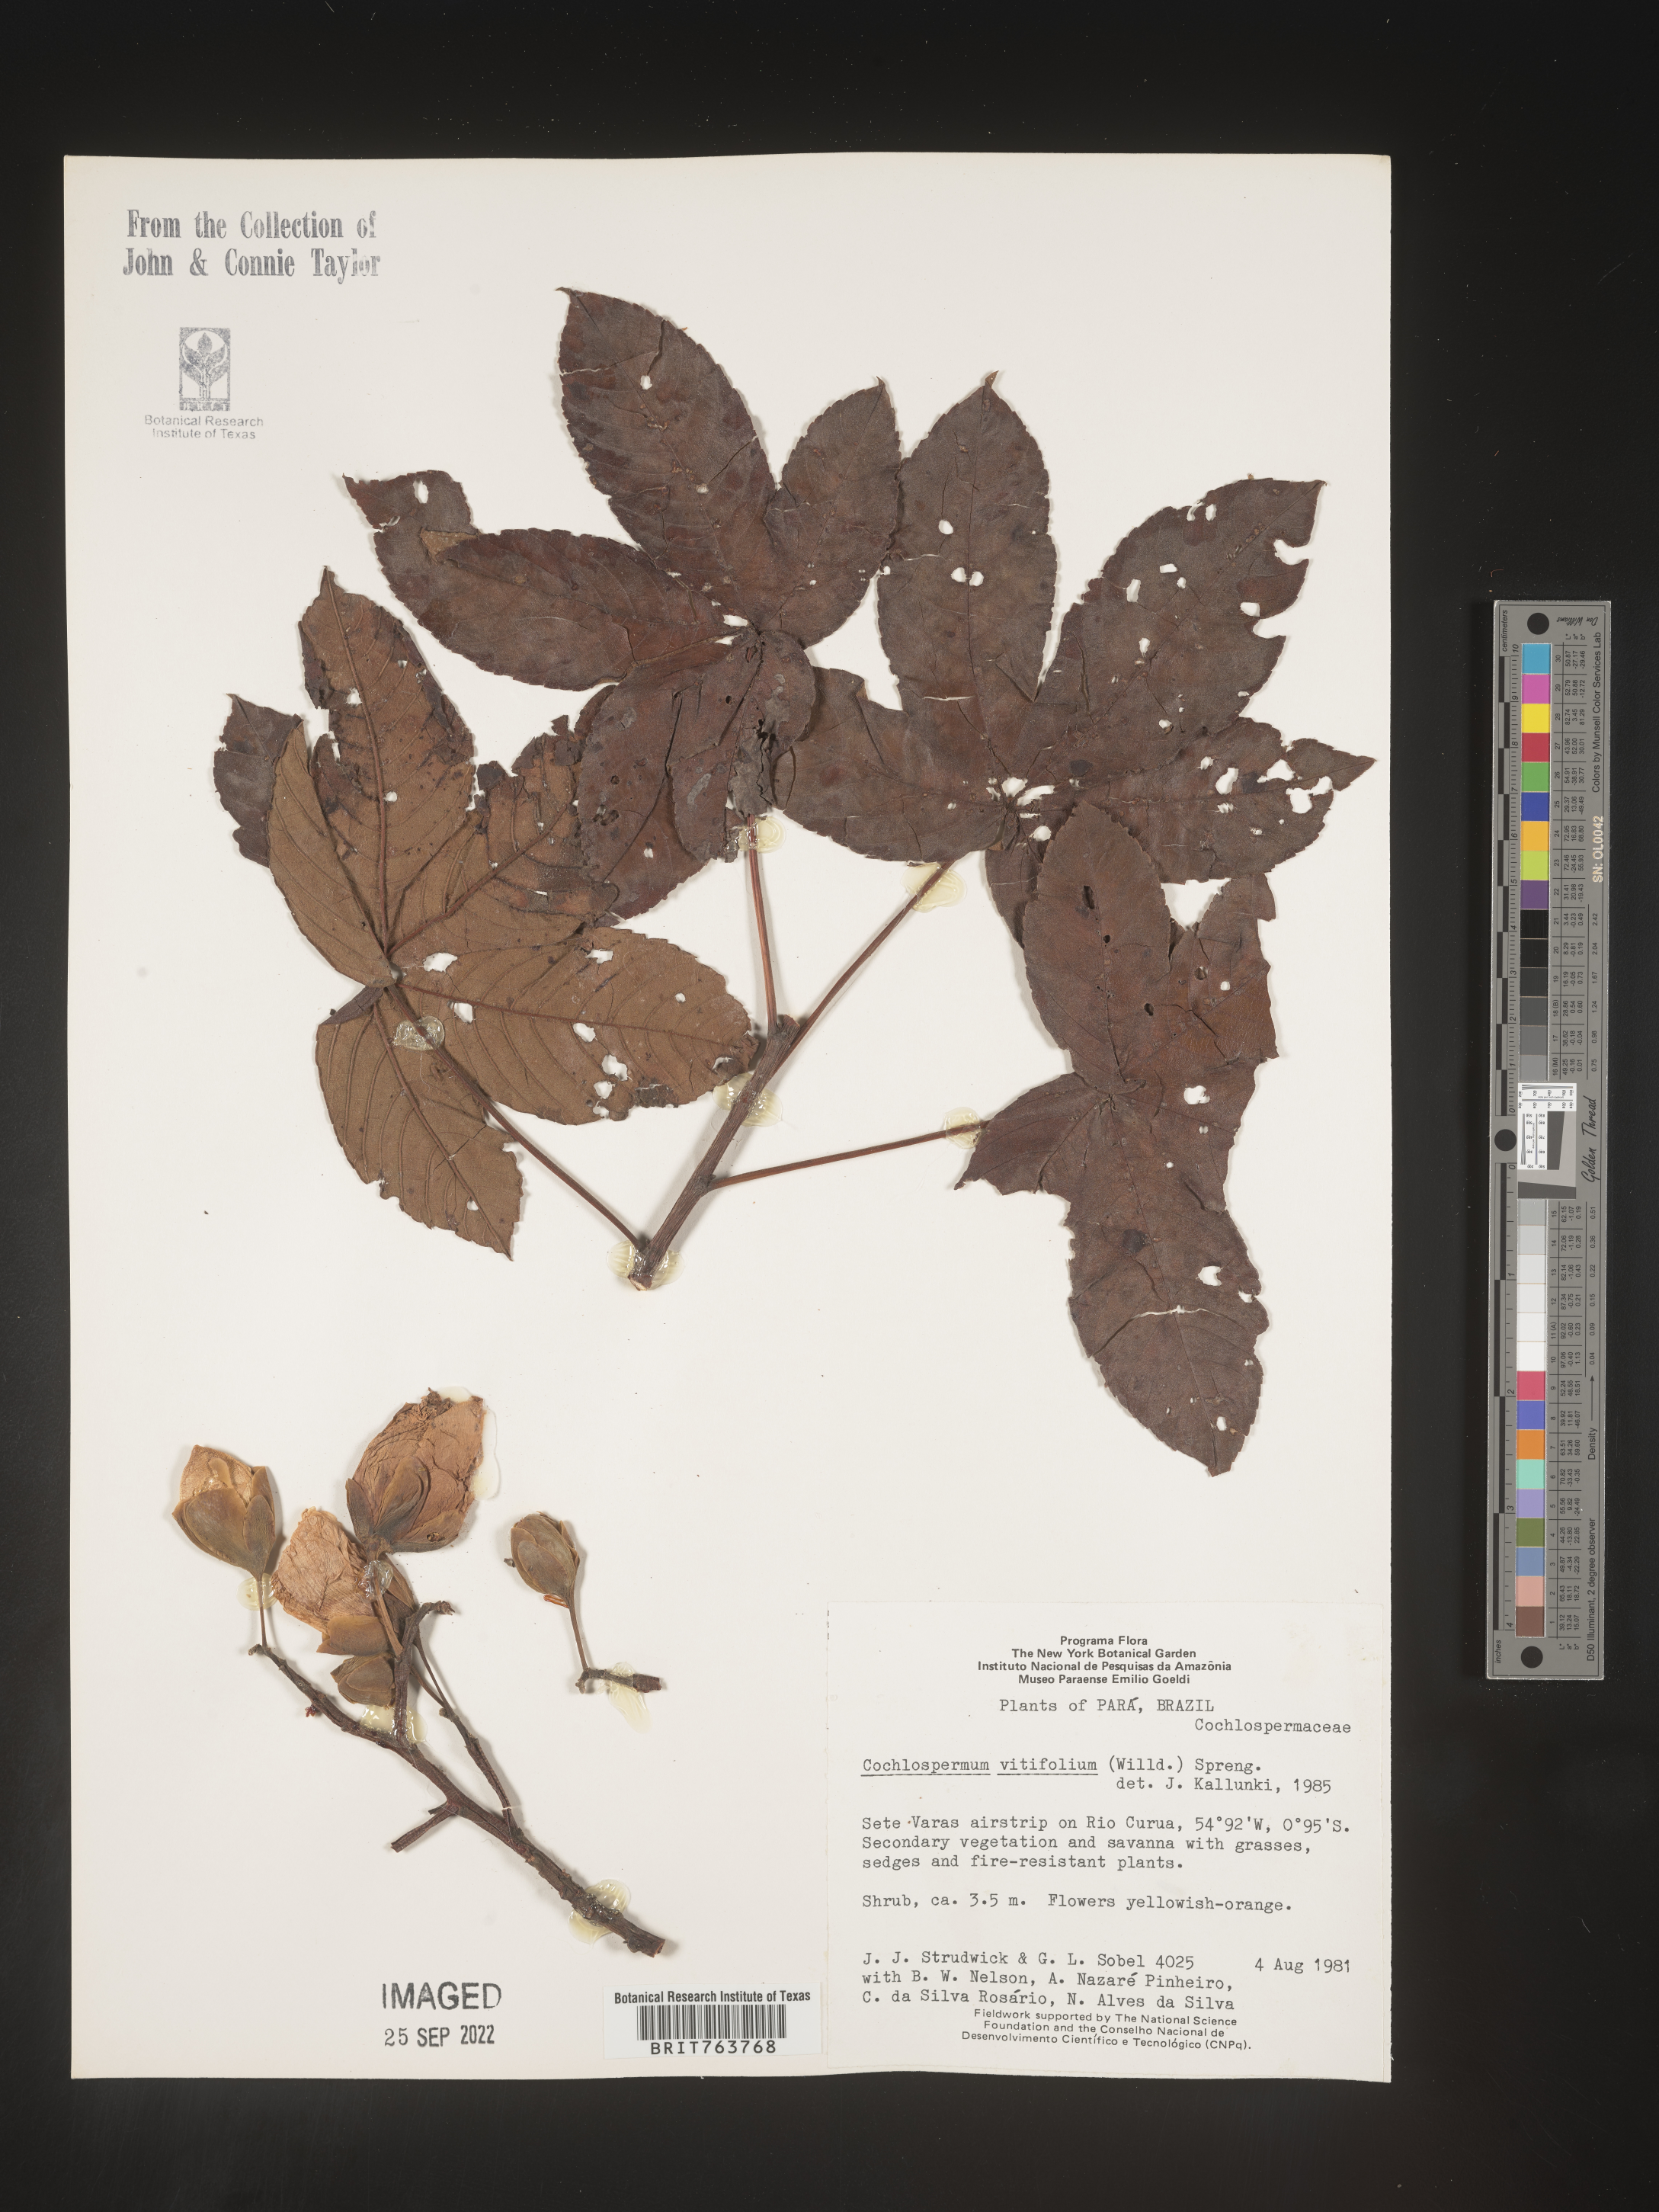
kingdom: Plantae
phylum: Tracheophyta
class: Magnoliopsida
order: Malvales
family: Cochlospermaceae
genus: Cochlospermum
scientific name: Cochlospermum
